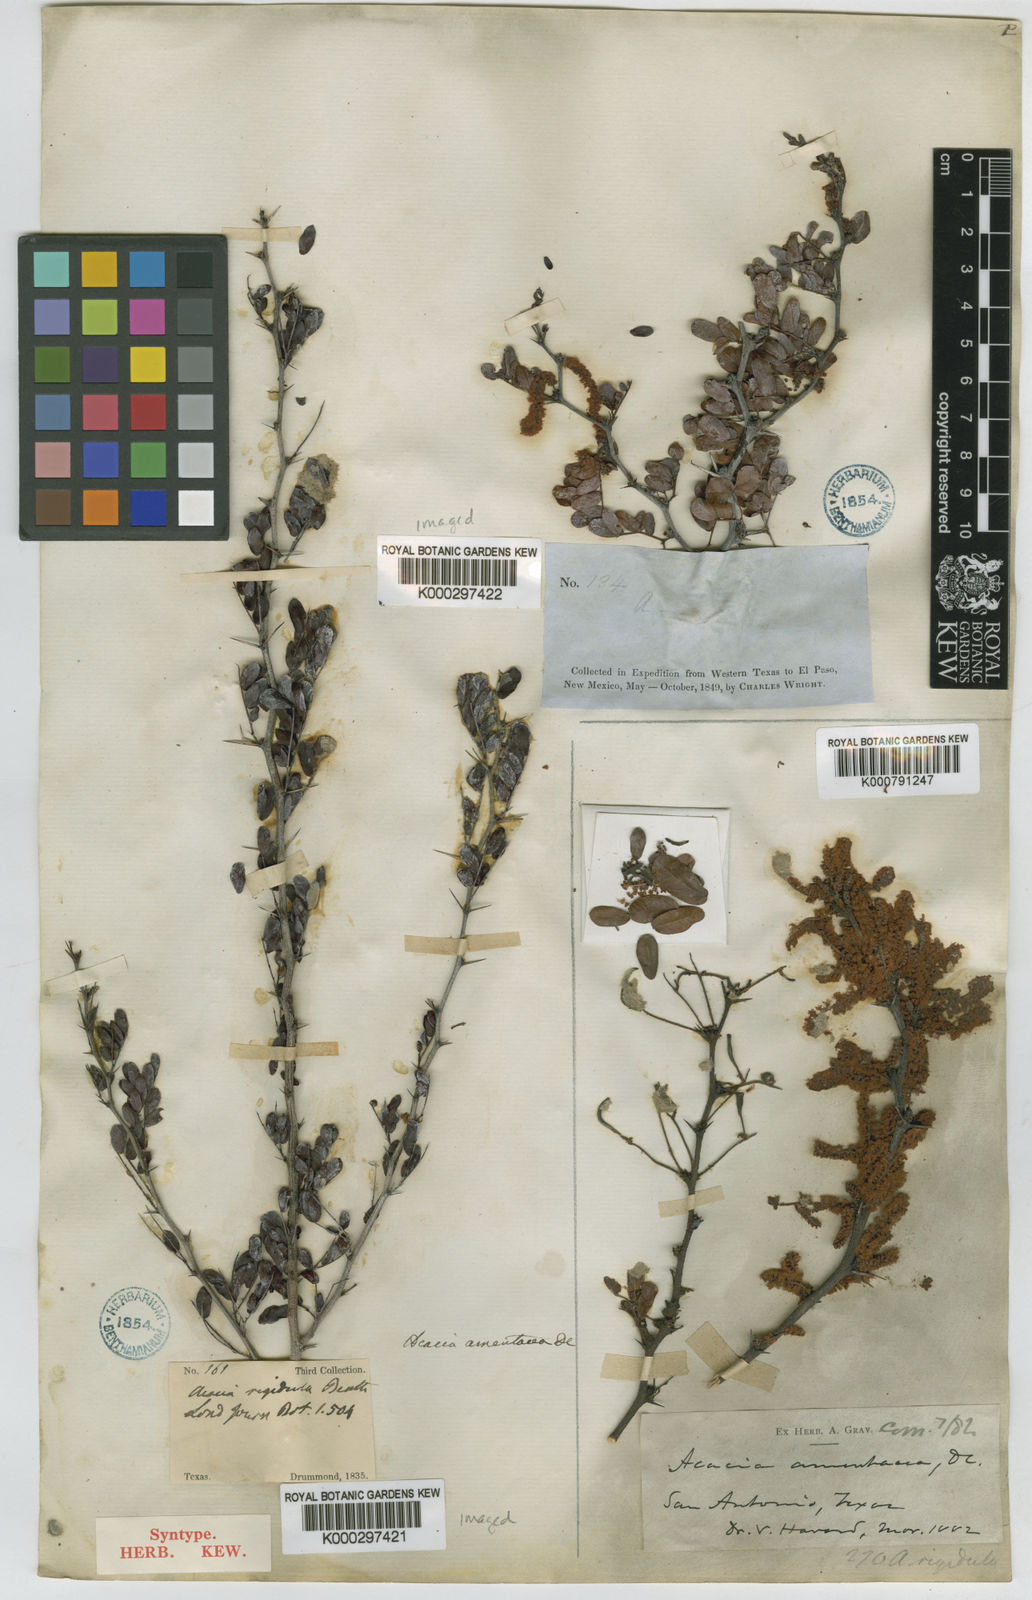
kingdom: Plantae
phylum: Tracheophyta
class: Magnoliopsida
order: Fabales
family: Fabaceae
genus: Vachellia
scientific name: Vachellia rigidula
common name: Blackbrush
